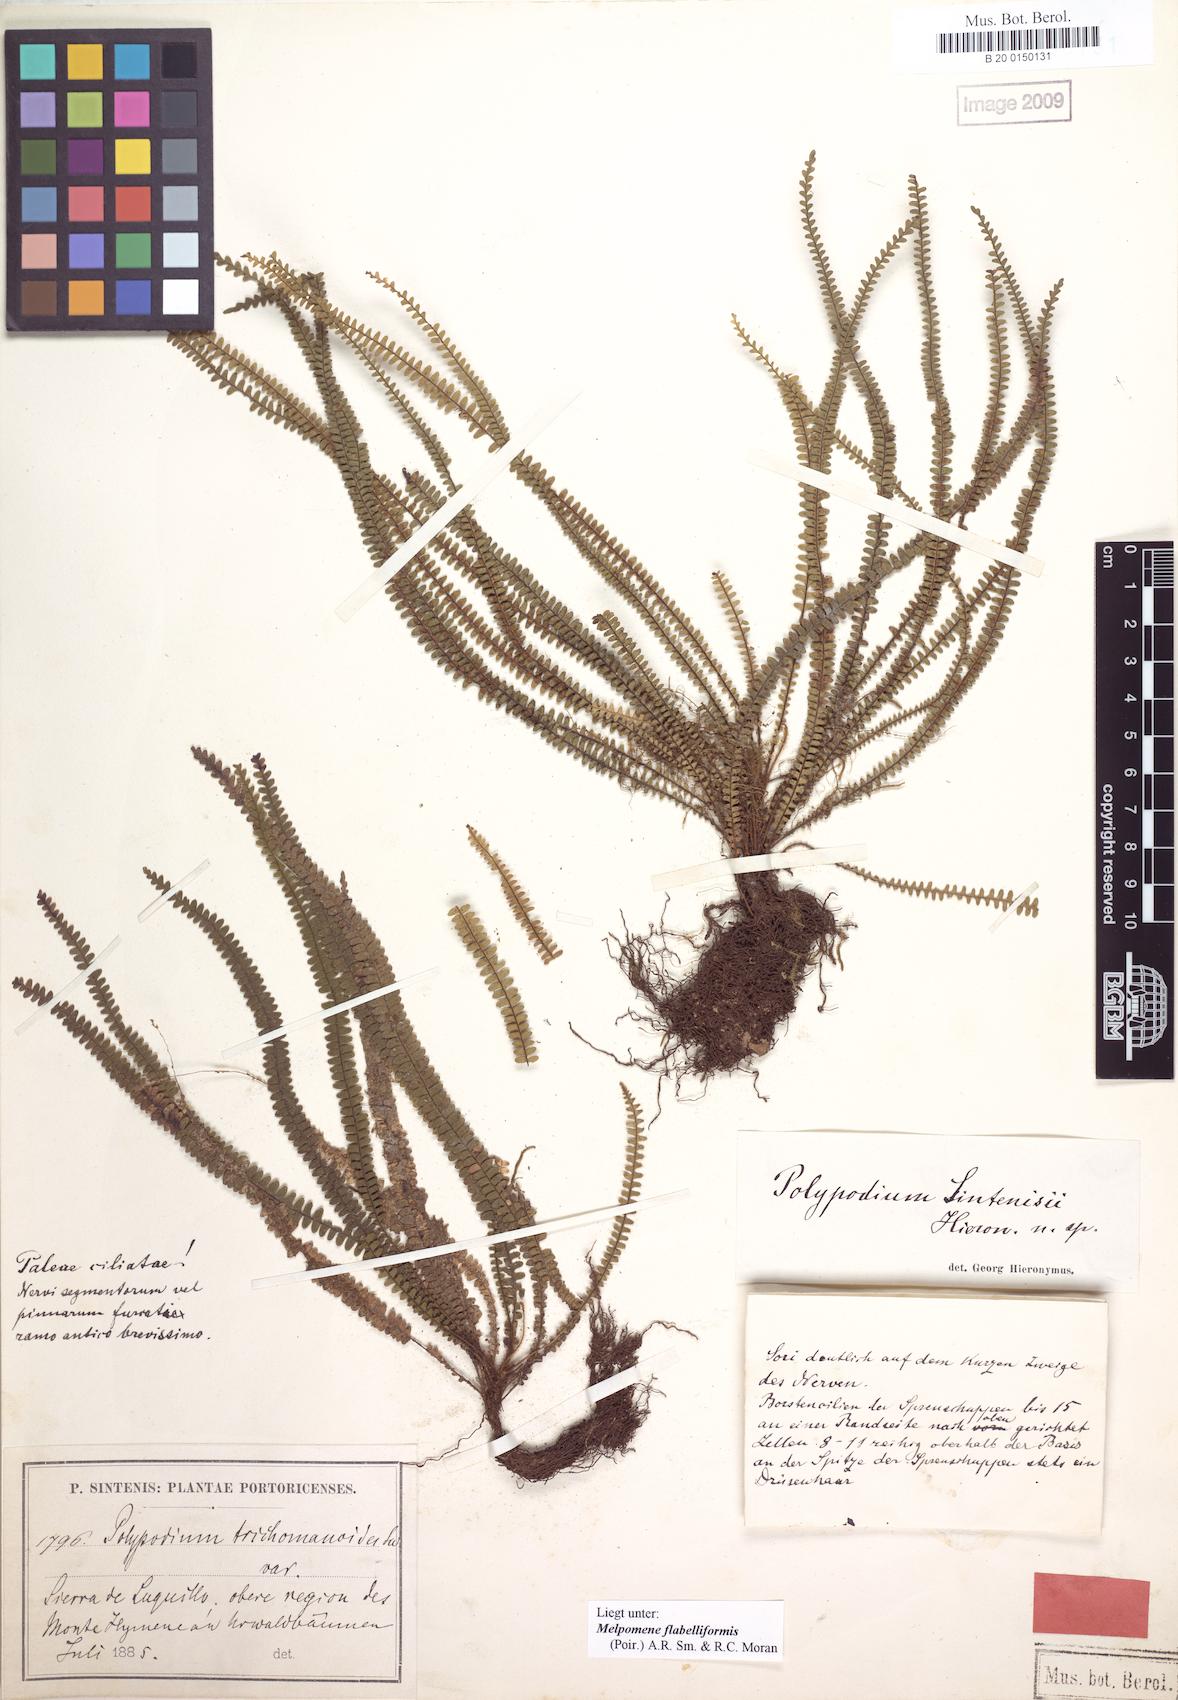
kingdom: Plantae
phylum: Tracheophyta
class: Polypodiopsida
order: Polypodiales
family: Polypodiaceae
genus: Moranopteris
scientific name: Moranopteris taenifolia
